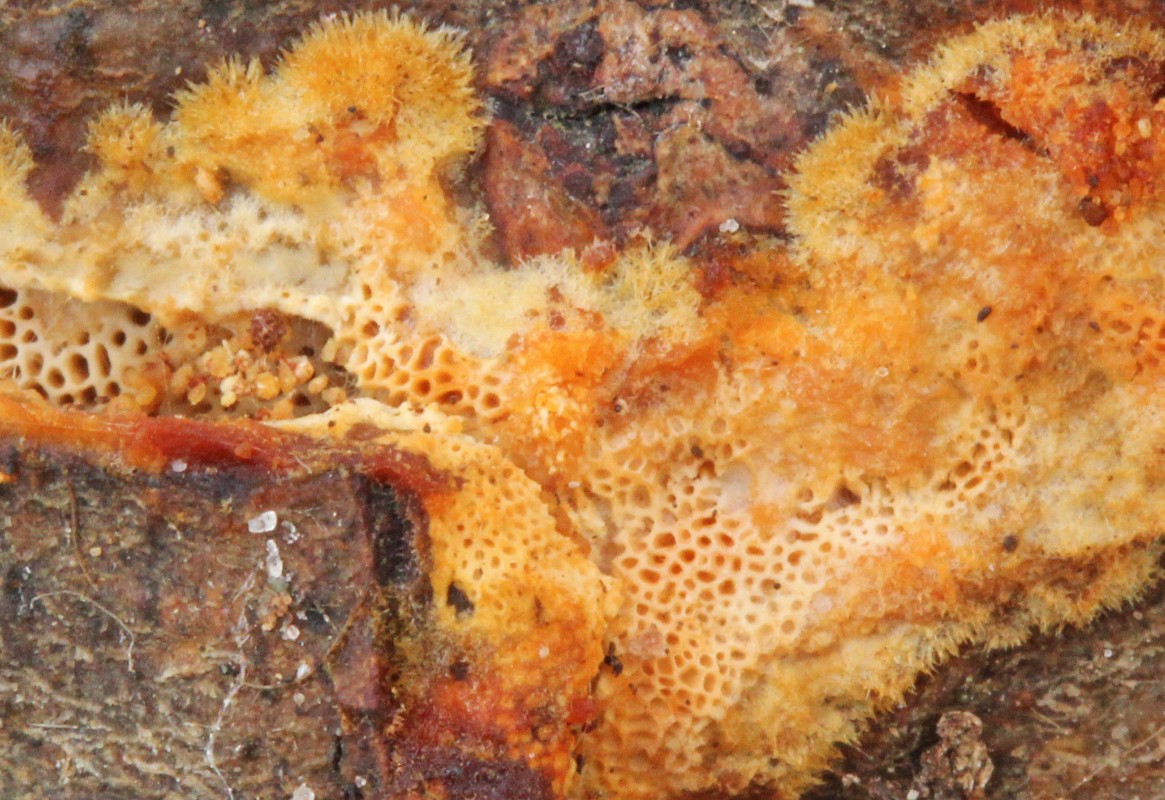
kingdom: Fungi
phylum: Basidiomycota
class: Agaricomycetes
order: Polyporales
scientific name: Polyporales
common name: poresvampordenen
